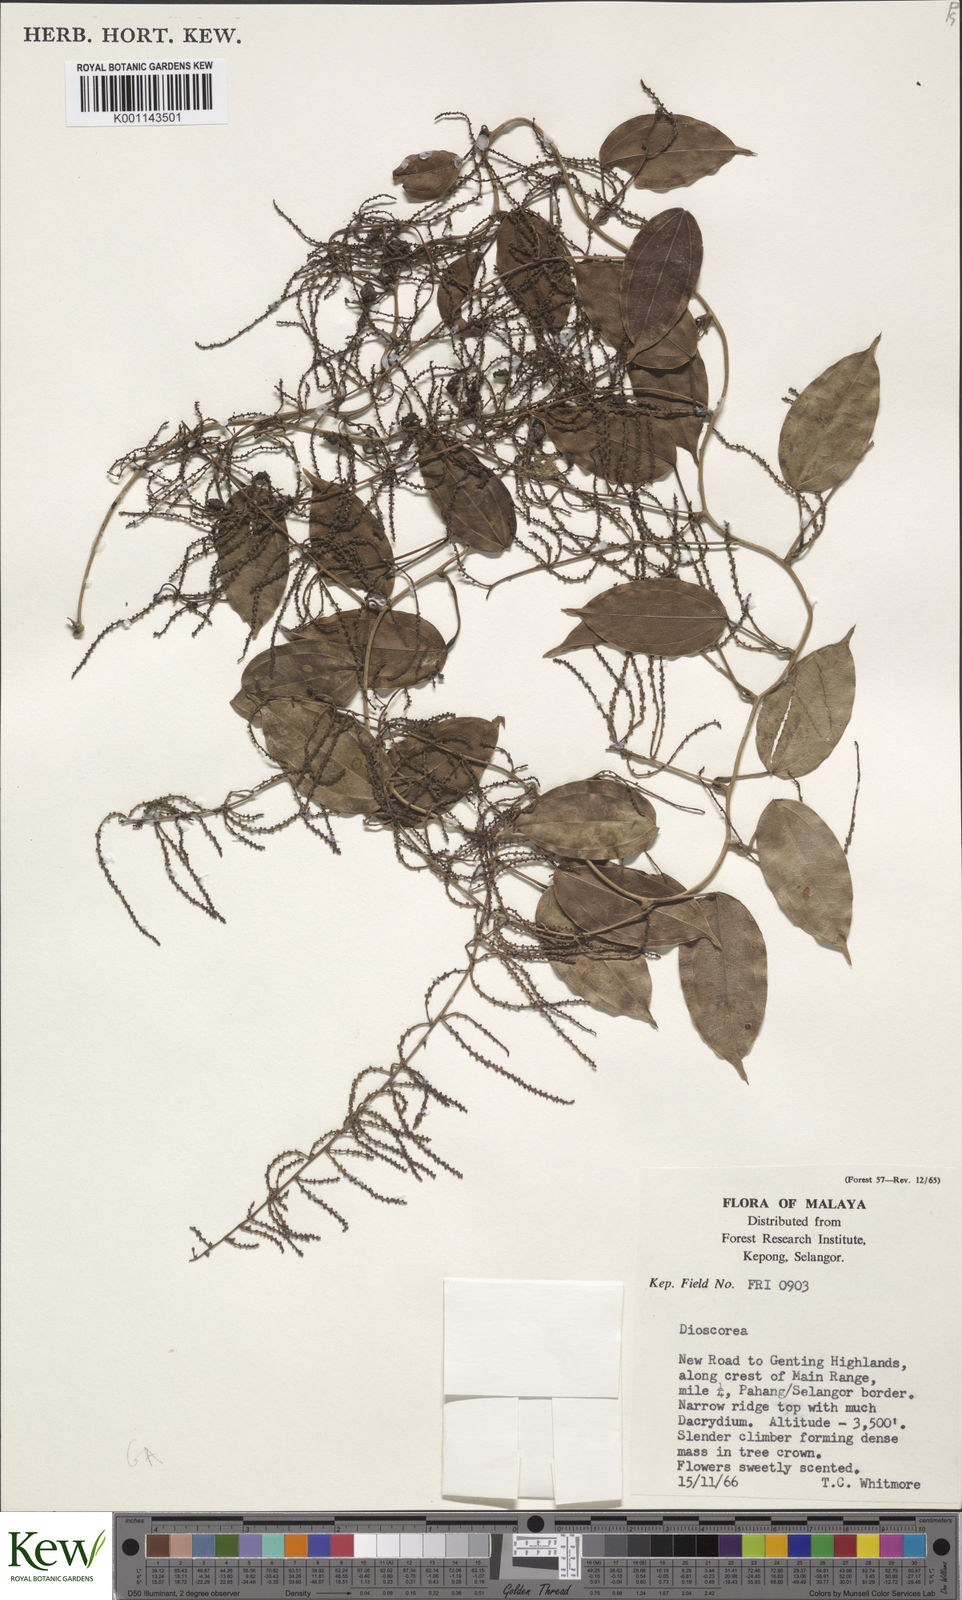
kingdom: Plantae
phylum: Tracheophyta
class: Liliopsida
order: Dioscoreales
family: Dioscoreaceae
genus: Dioscorea
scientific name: Dioscorea
